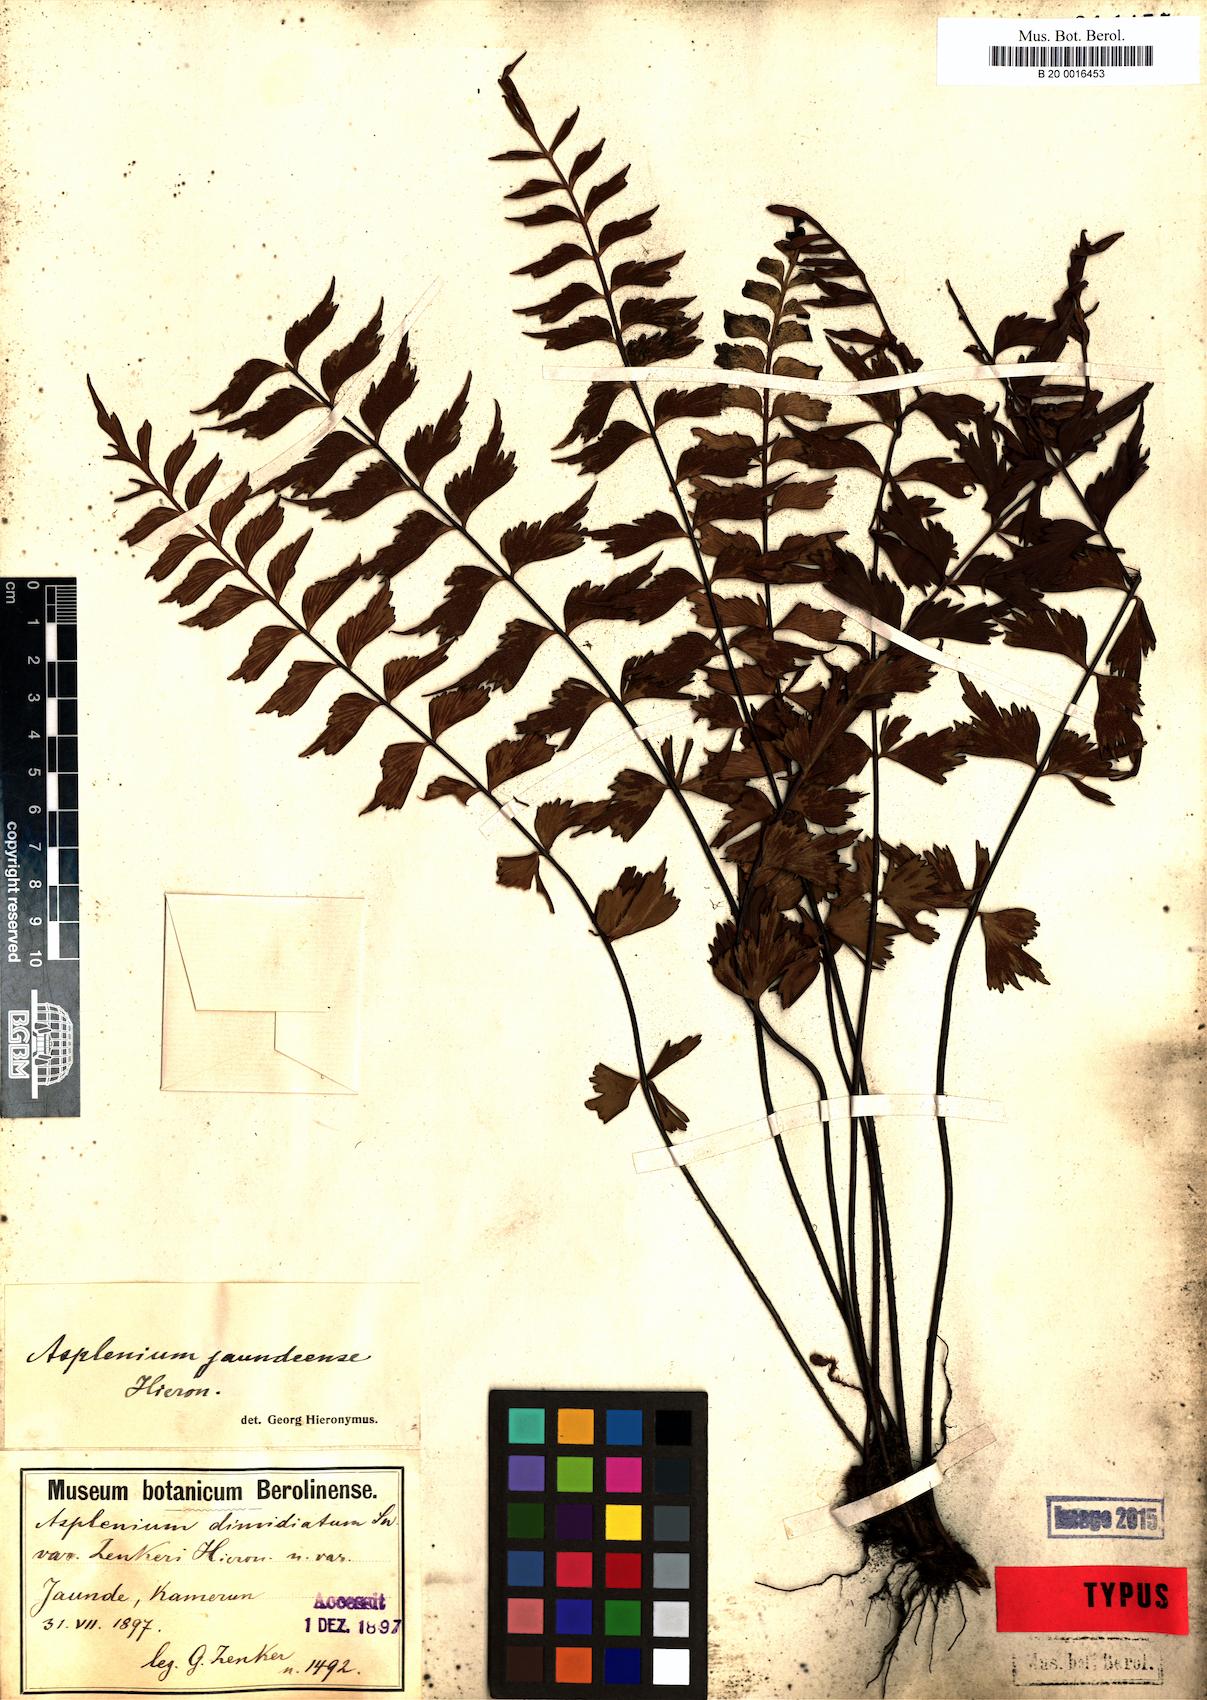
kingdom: Plantae
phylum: Tracheophyta
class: Polypodiopsida
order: Polypodiales
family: Aspleniaceae
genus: Asplenium
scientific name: Asplenium jaundeense
